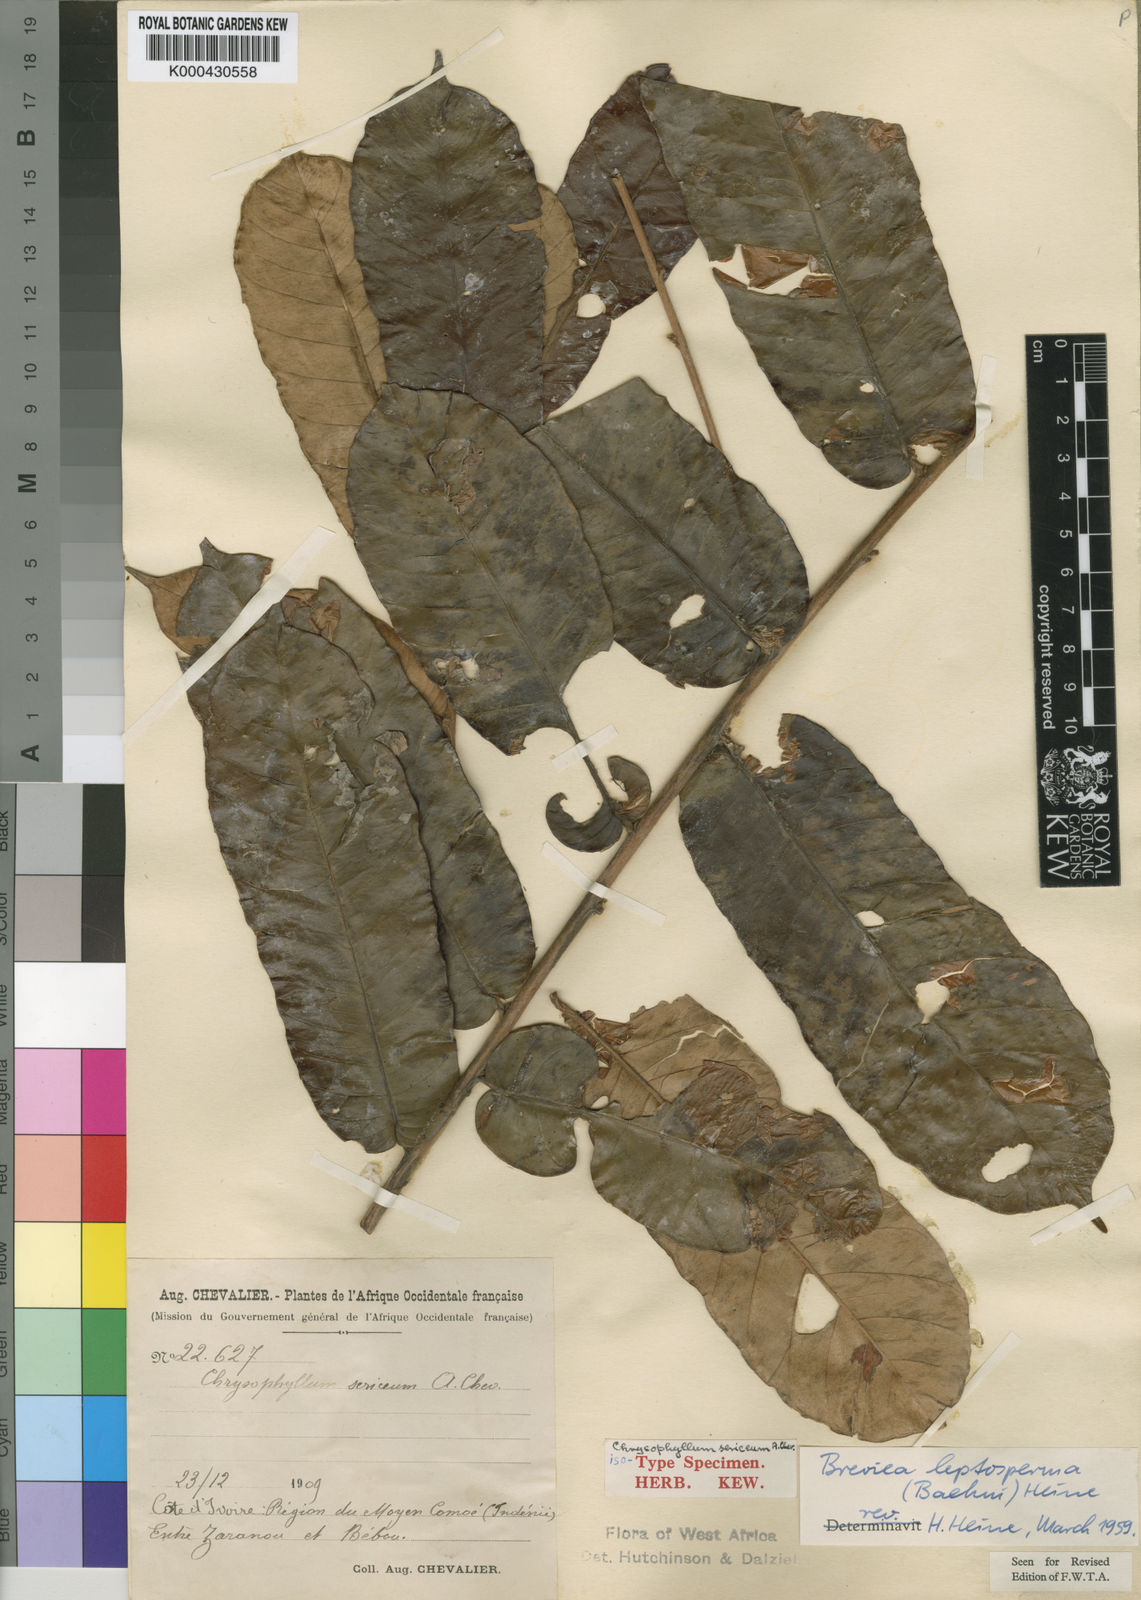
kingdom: Plantae
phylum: Tracheophyta
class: Magnoliopsida
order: Ericales
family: Sapotaceae
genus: Breviea
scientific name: Breviea sericea
